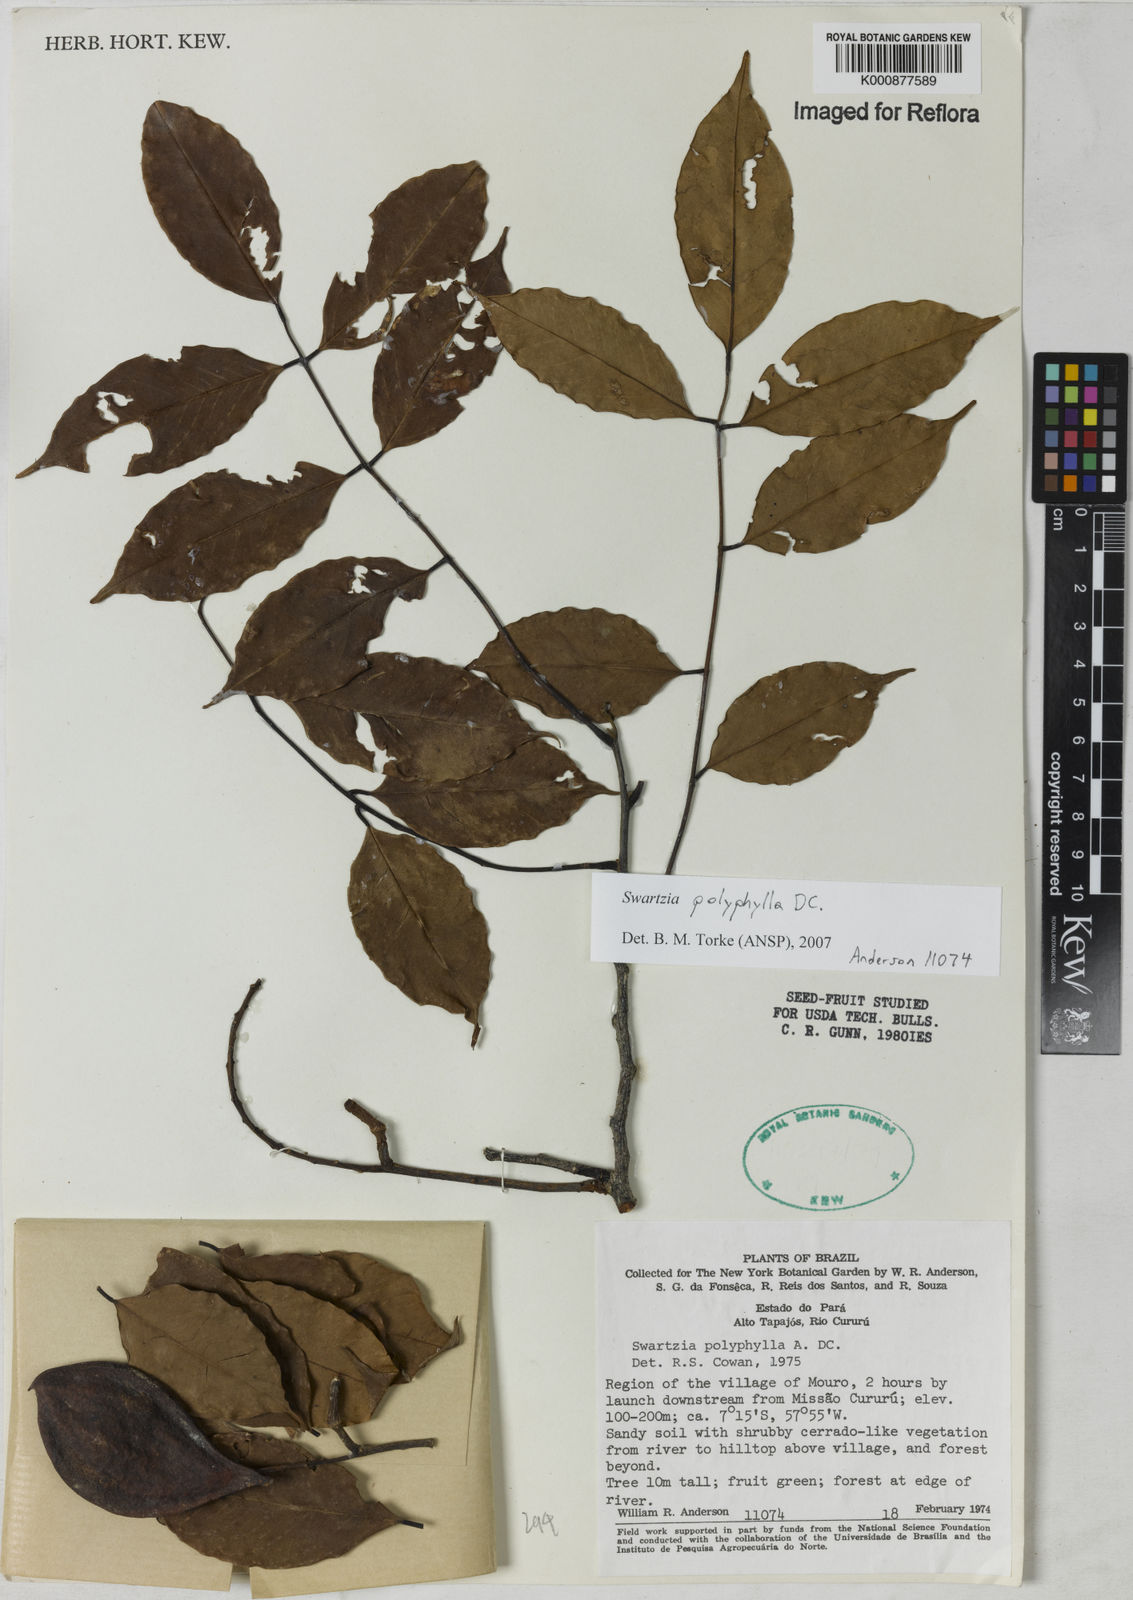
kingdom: Plantae
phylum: Tracheophyta
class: Magnoliopsida
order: Fabales
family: Fabaceae
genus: Swartzia
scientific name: Swartzia polyphylla
